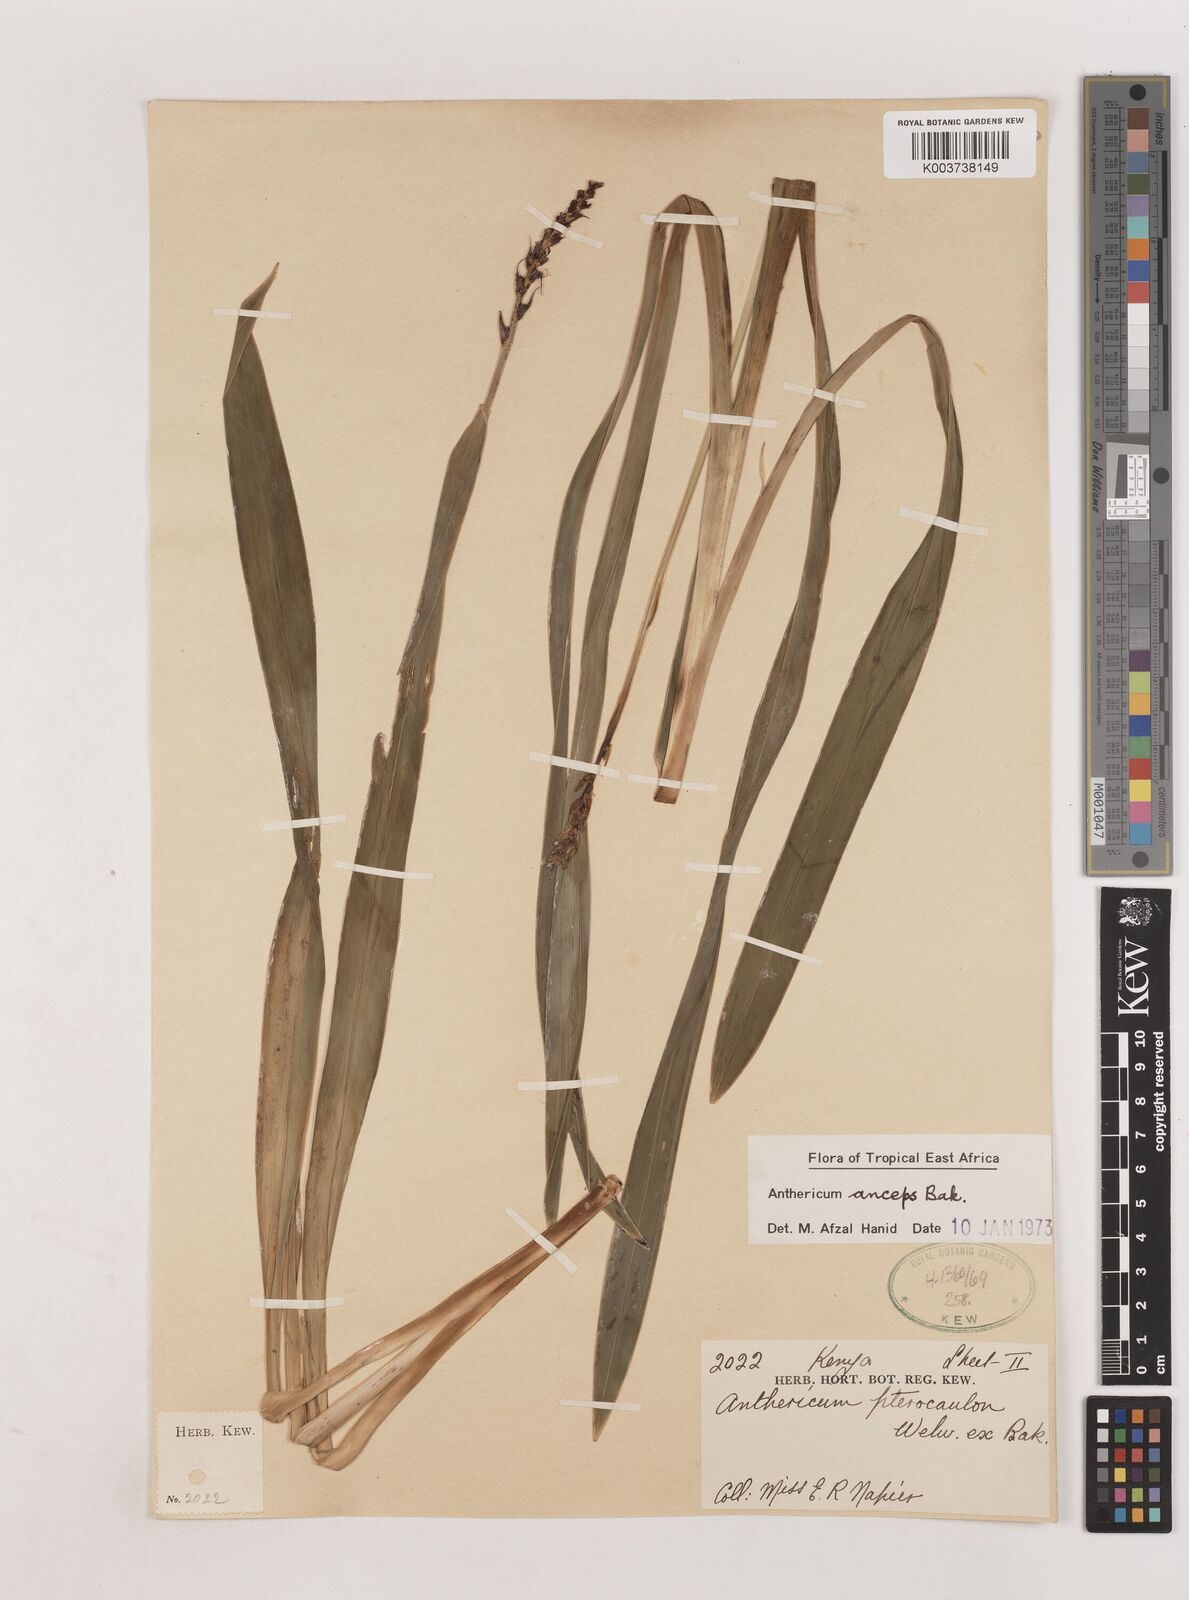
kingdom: Plantae
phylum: Tracheophyta
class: Liliopsida
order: Asparagales
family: Asparagaceae
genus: Chlorophytum
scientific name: Chlorophytum cameronii
